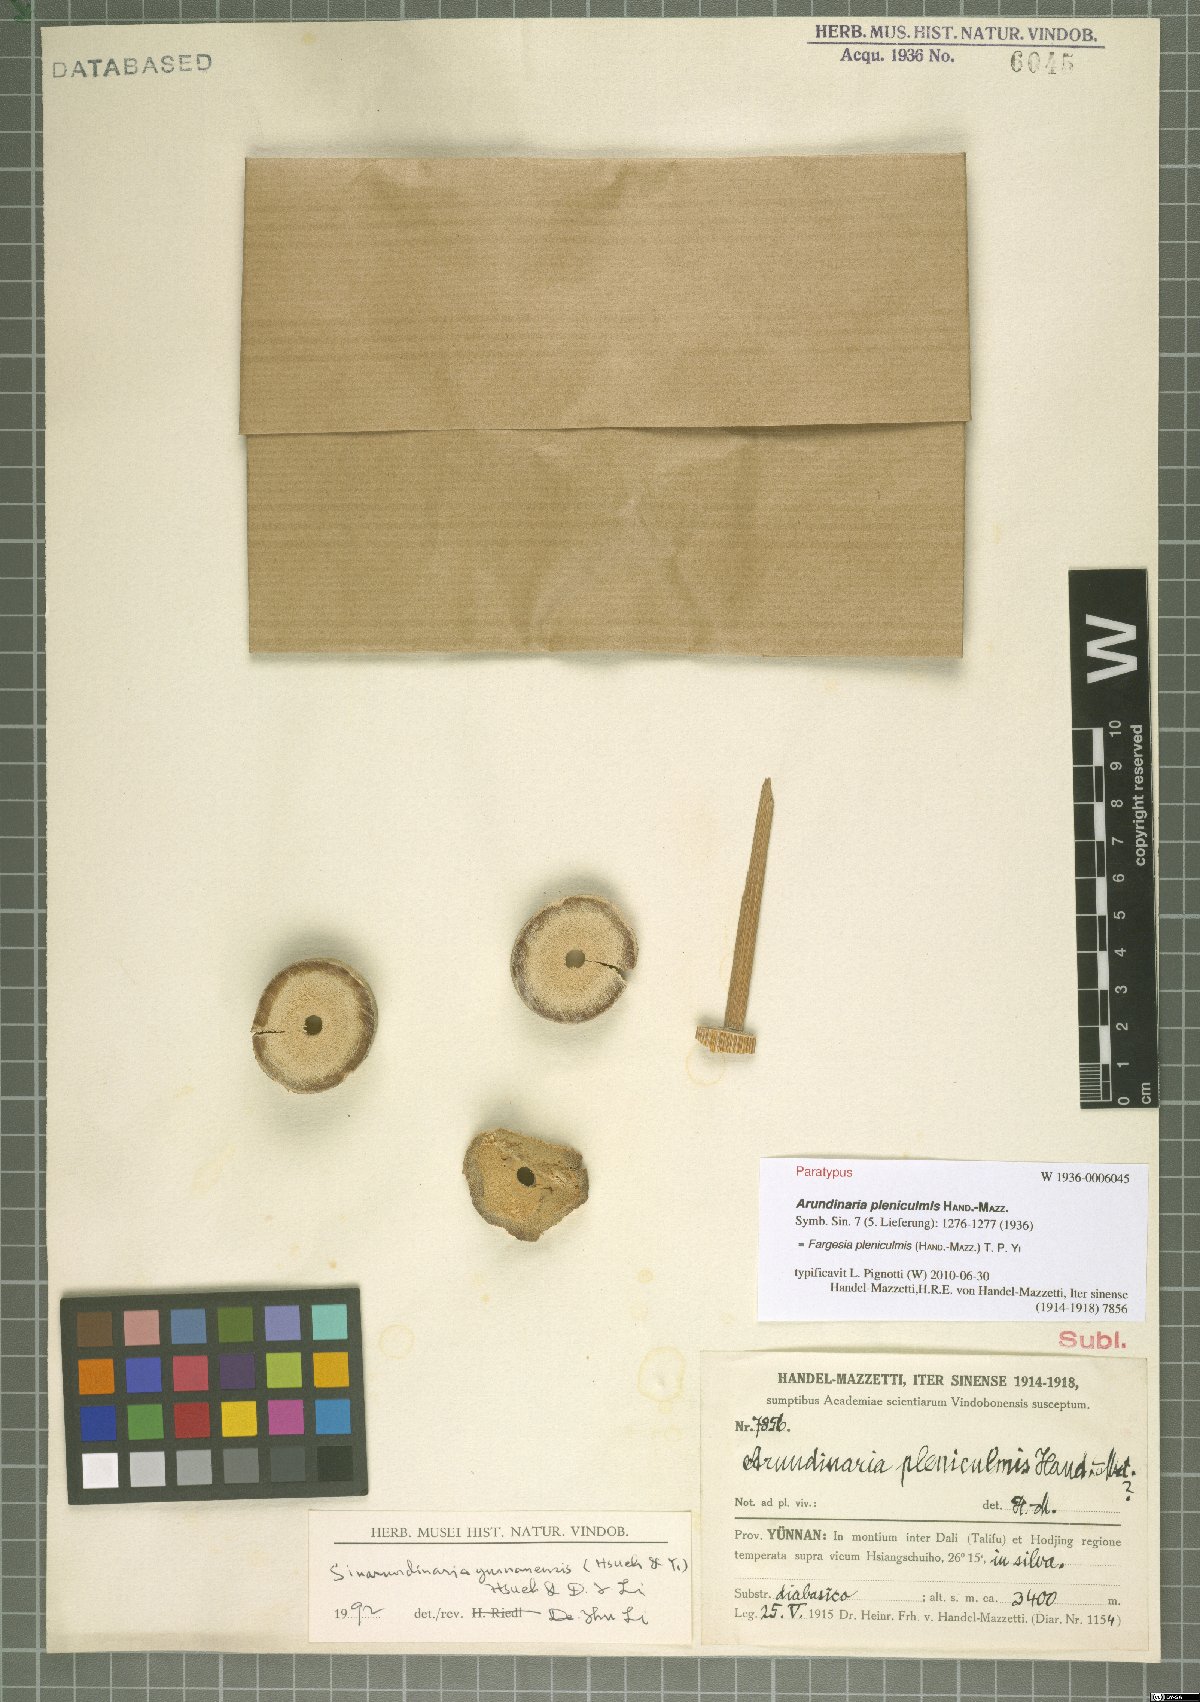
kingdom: Plantae
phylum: Tracheophyta
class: Liliopsida
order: Poales
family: Poaceae
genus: Borinda
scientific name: Borinda pleniculmis
